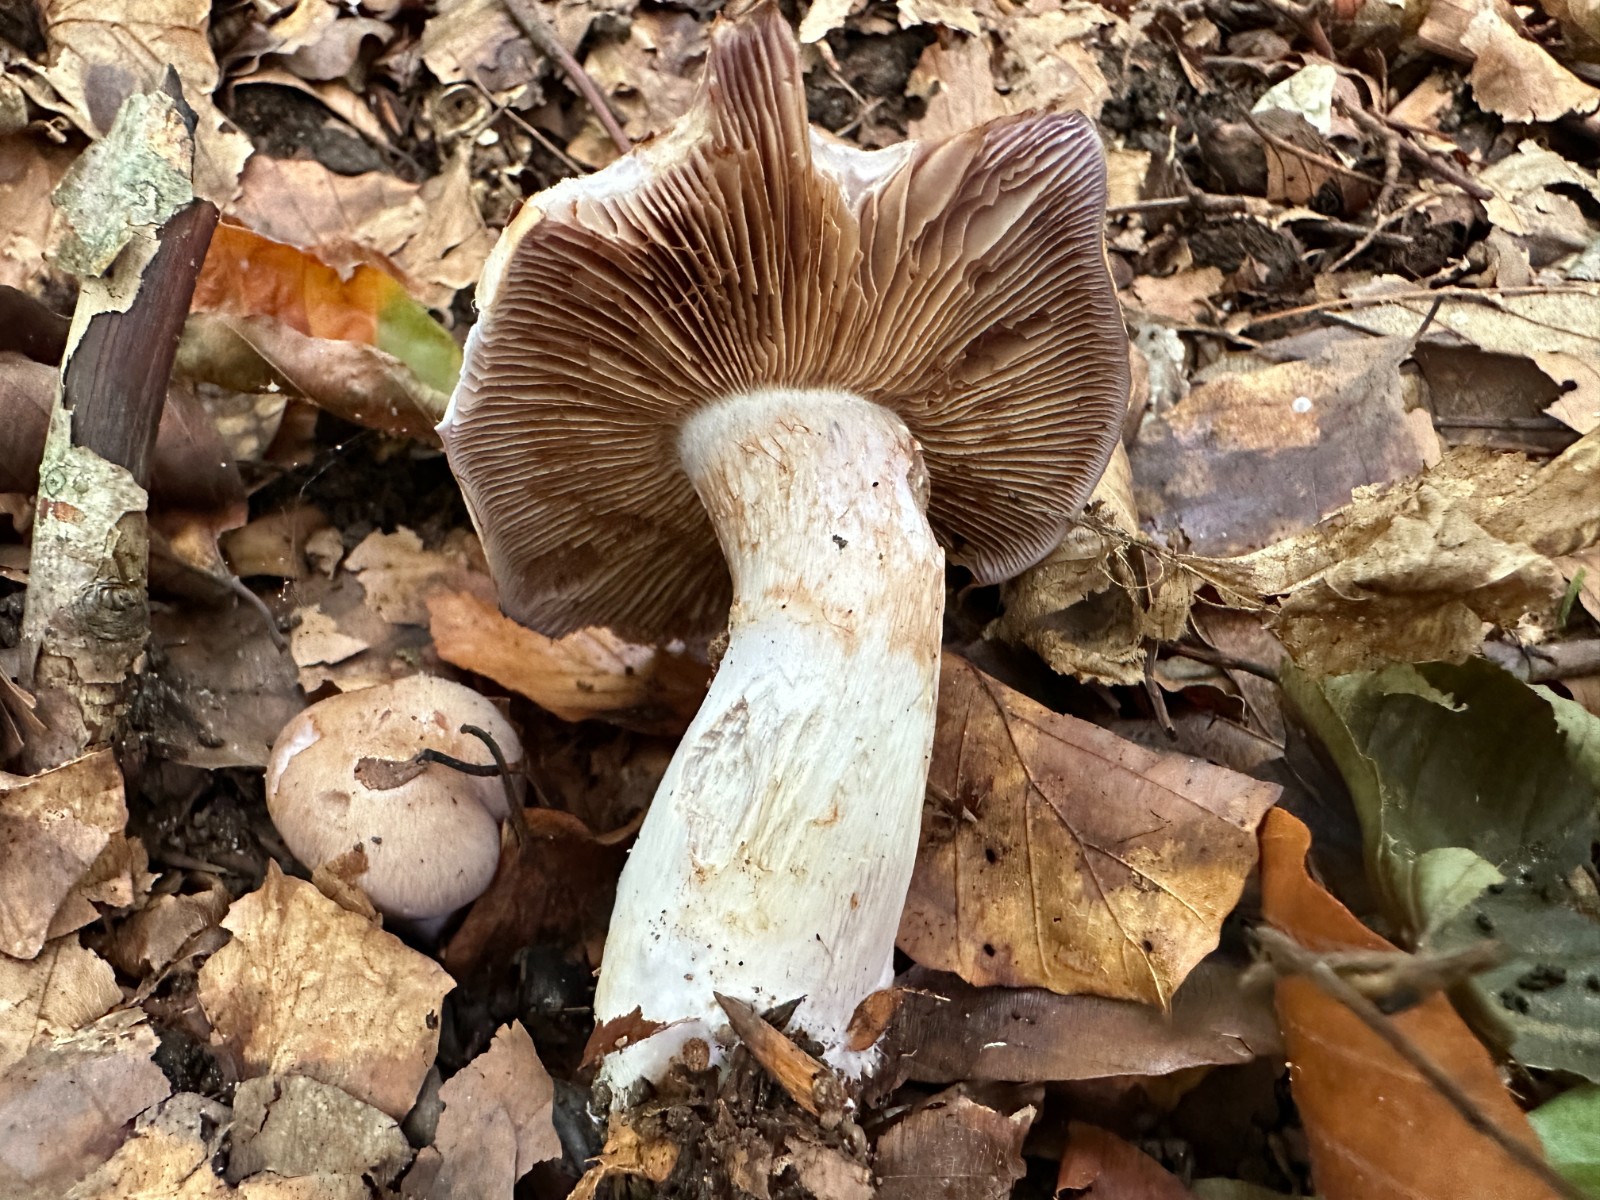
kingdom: Fungi
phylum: Basidiomycota
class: Agaricomycetes
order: Agaricales
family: Cortinariaceae
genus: Cortinarius
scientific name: Cortinarius largus
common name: violetrandet slørhat
